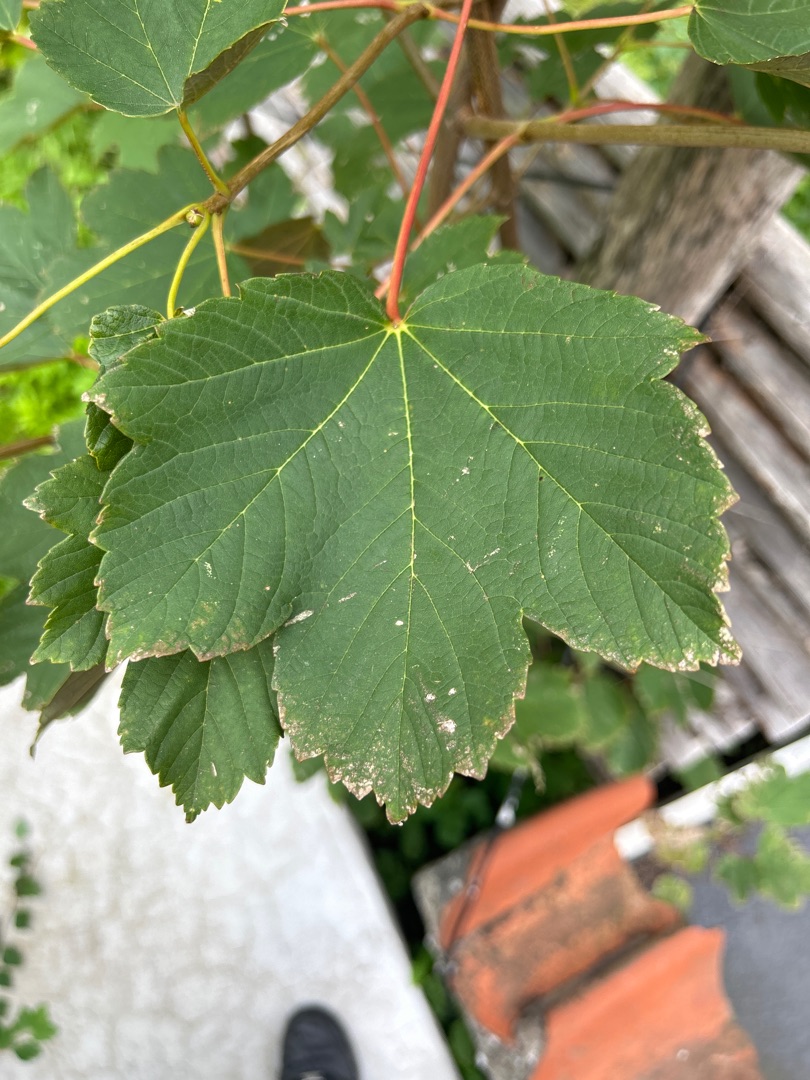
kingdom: Plantae
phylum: Tracheophyta
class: Magnoliopsida
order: Sapindales
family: Sapindaceae
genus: Acer
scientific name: Acer pseudoplatanus
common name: Ahorn
